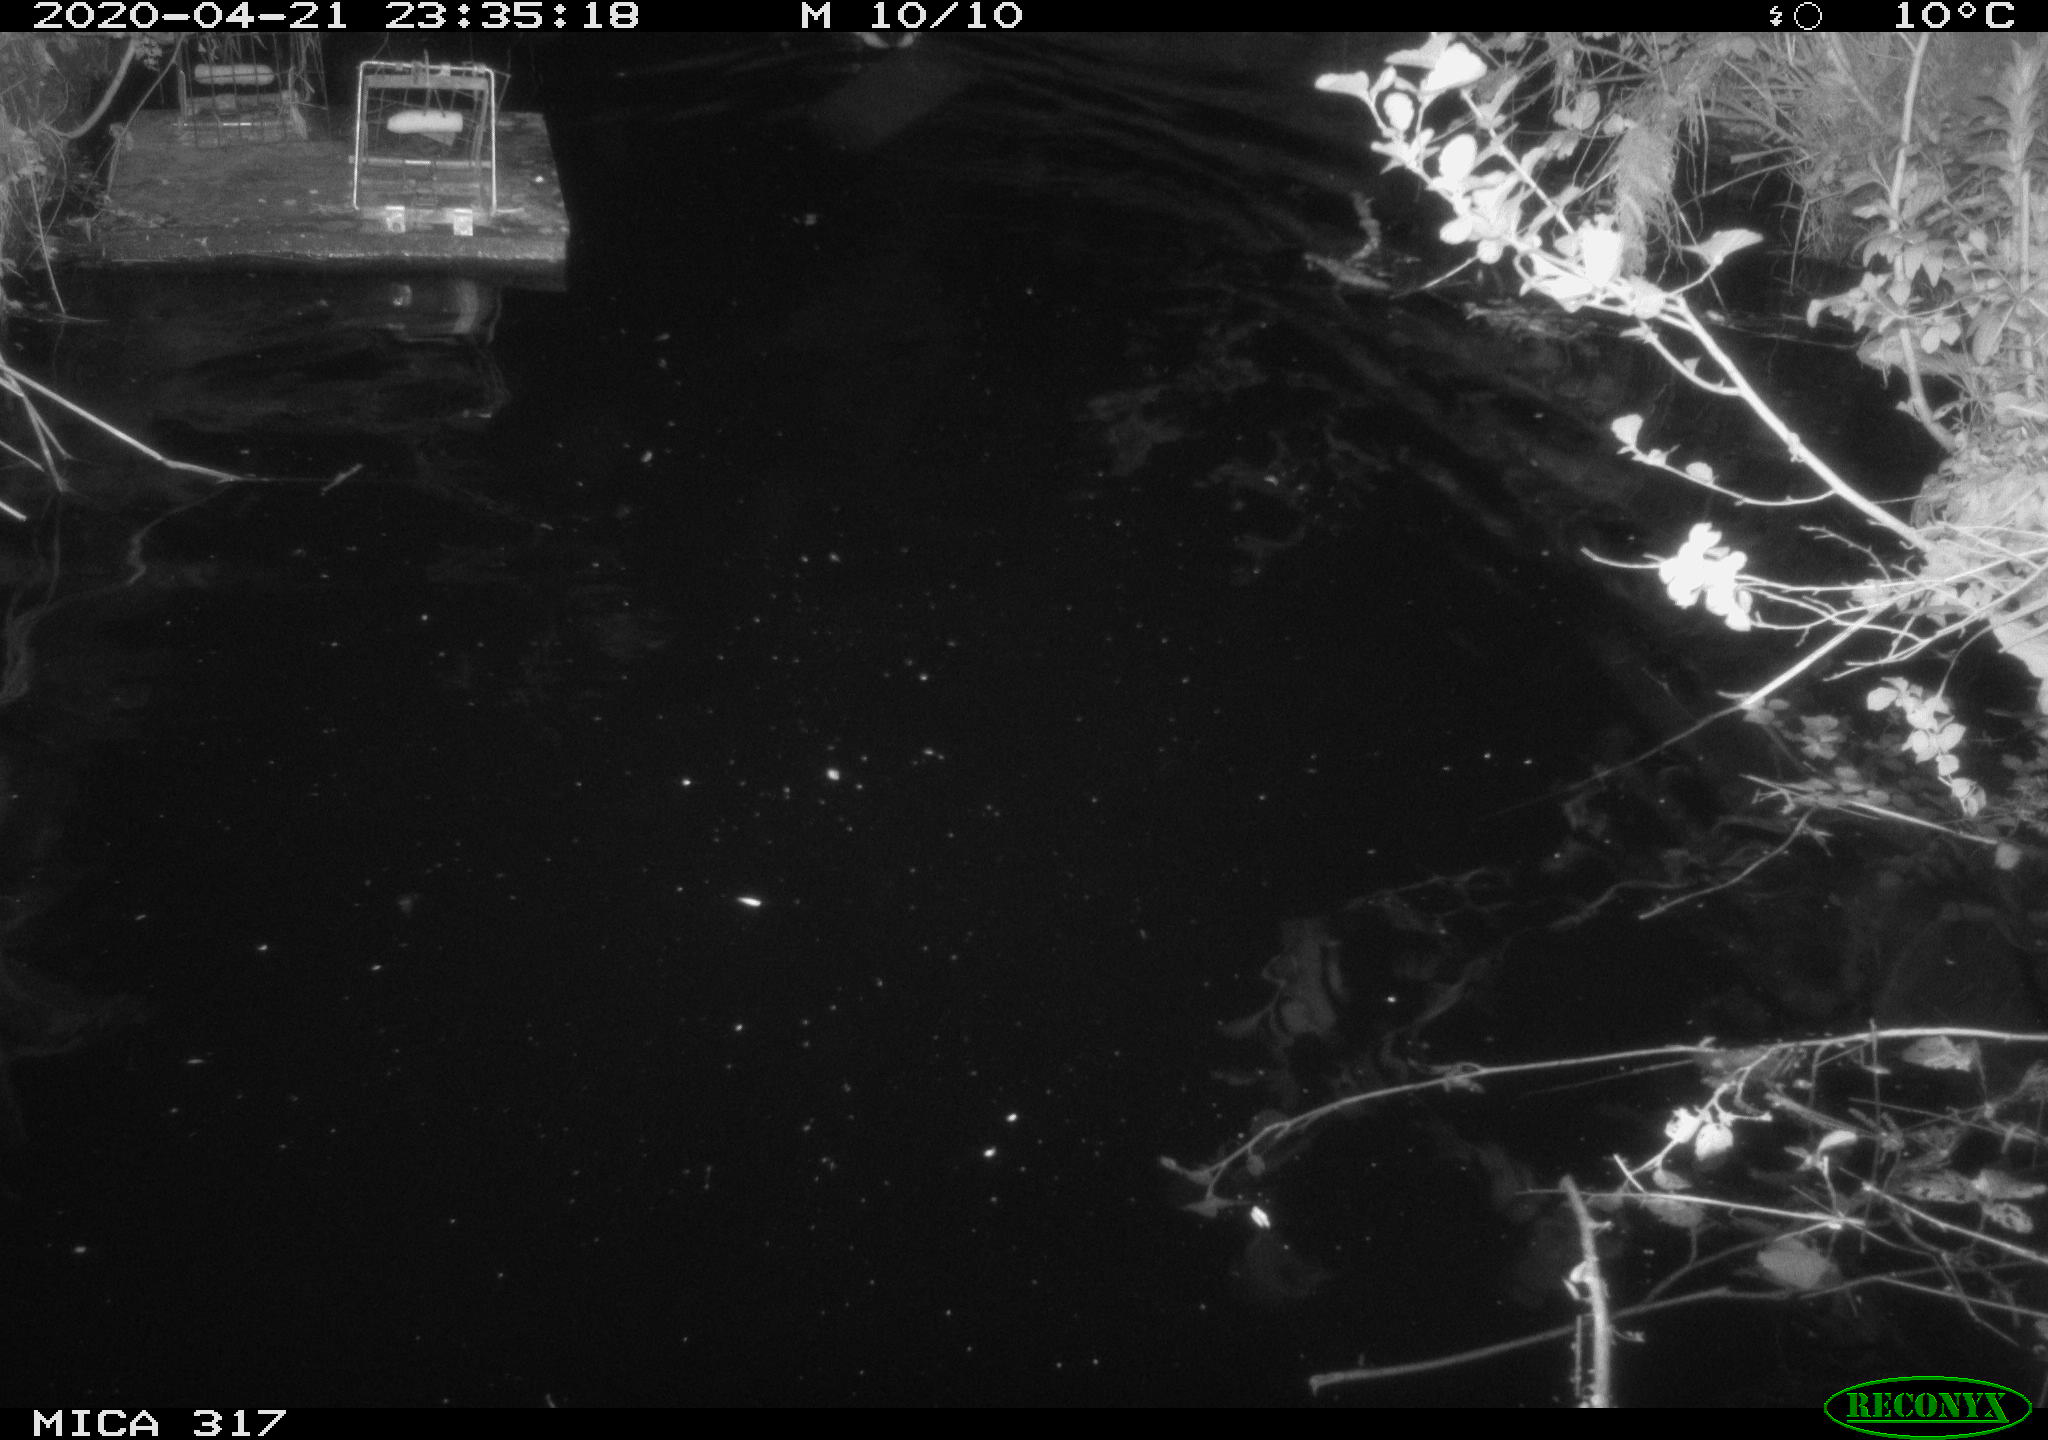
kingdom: Animalia
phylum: Chordata
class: Aves
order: Anseriformes
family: Anatidae
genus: Anas
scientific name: Anas platyrhynchos
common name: Mallard
